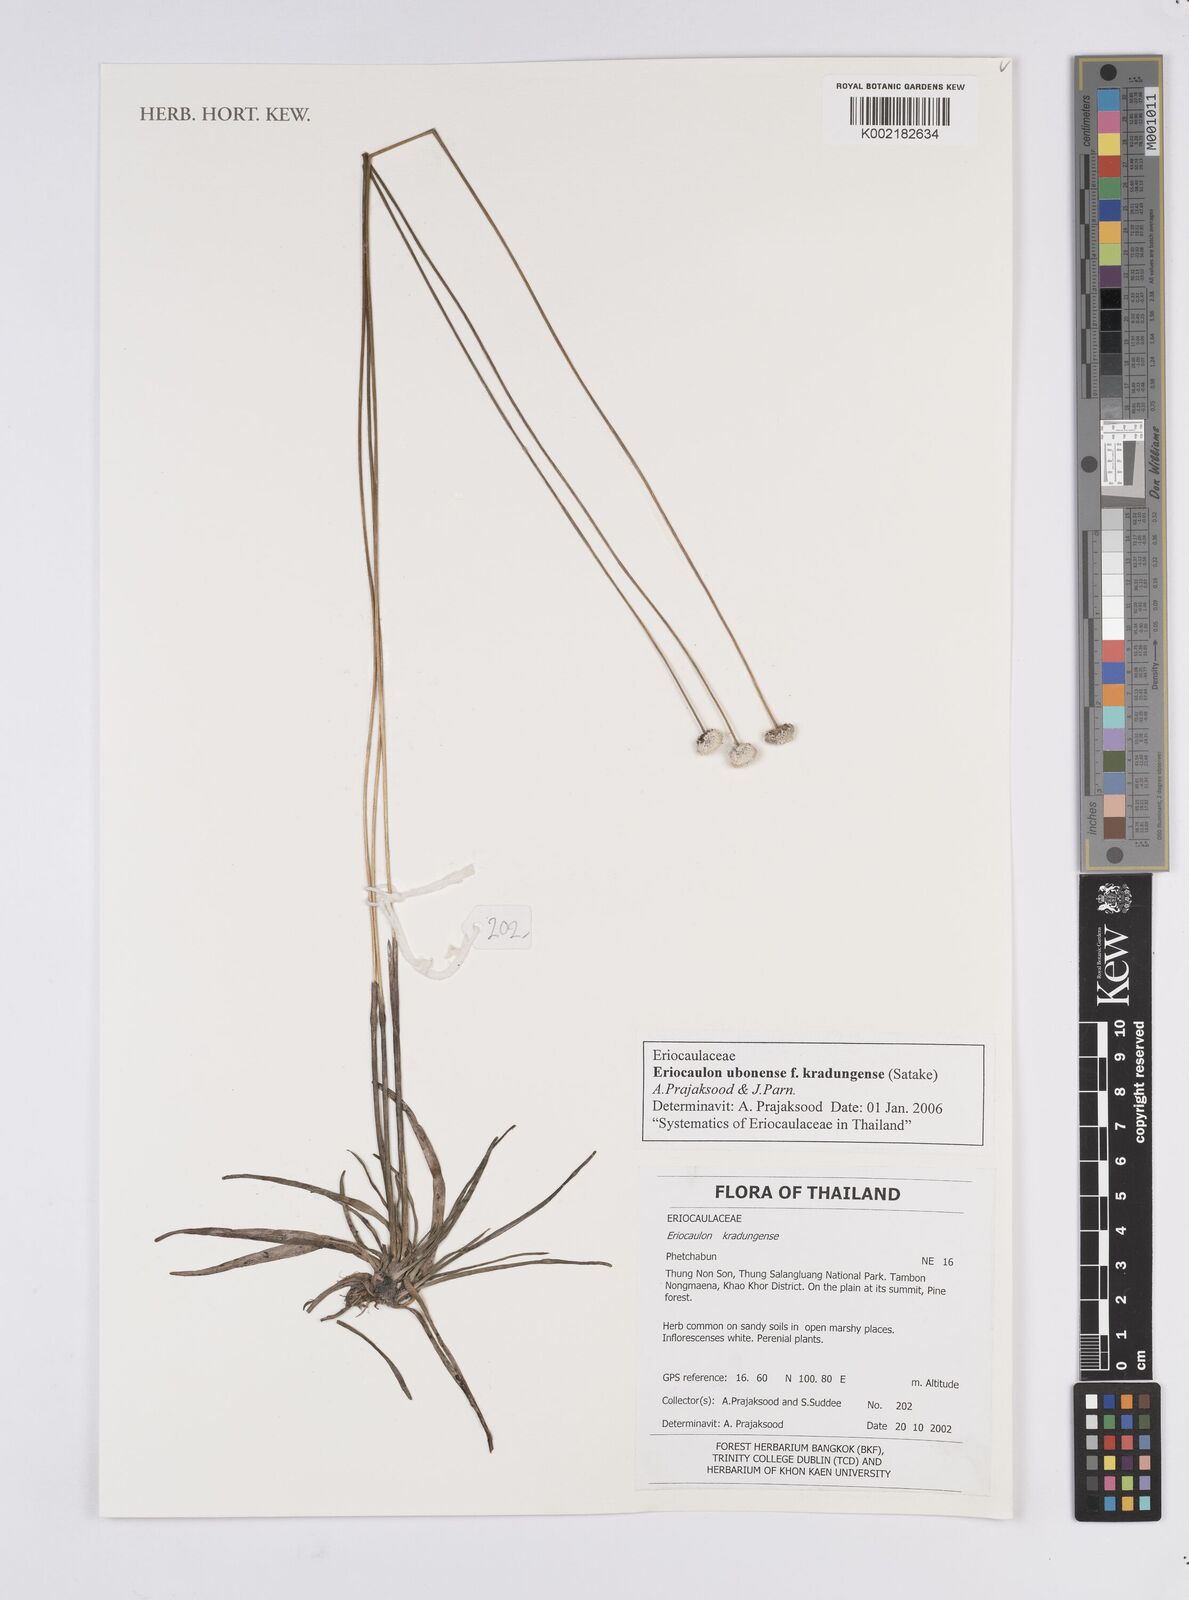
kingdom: Plantae
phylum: Tracheophyta
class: Liliopsida
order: Poales
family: Eriocaulaceae
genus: Eriocaulon
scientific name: Eriocaulon ubonense
